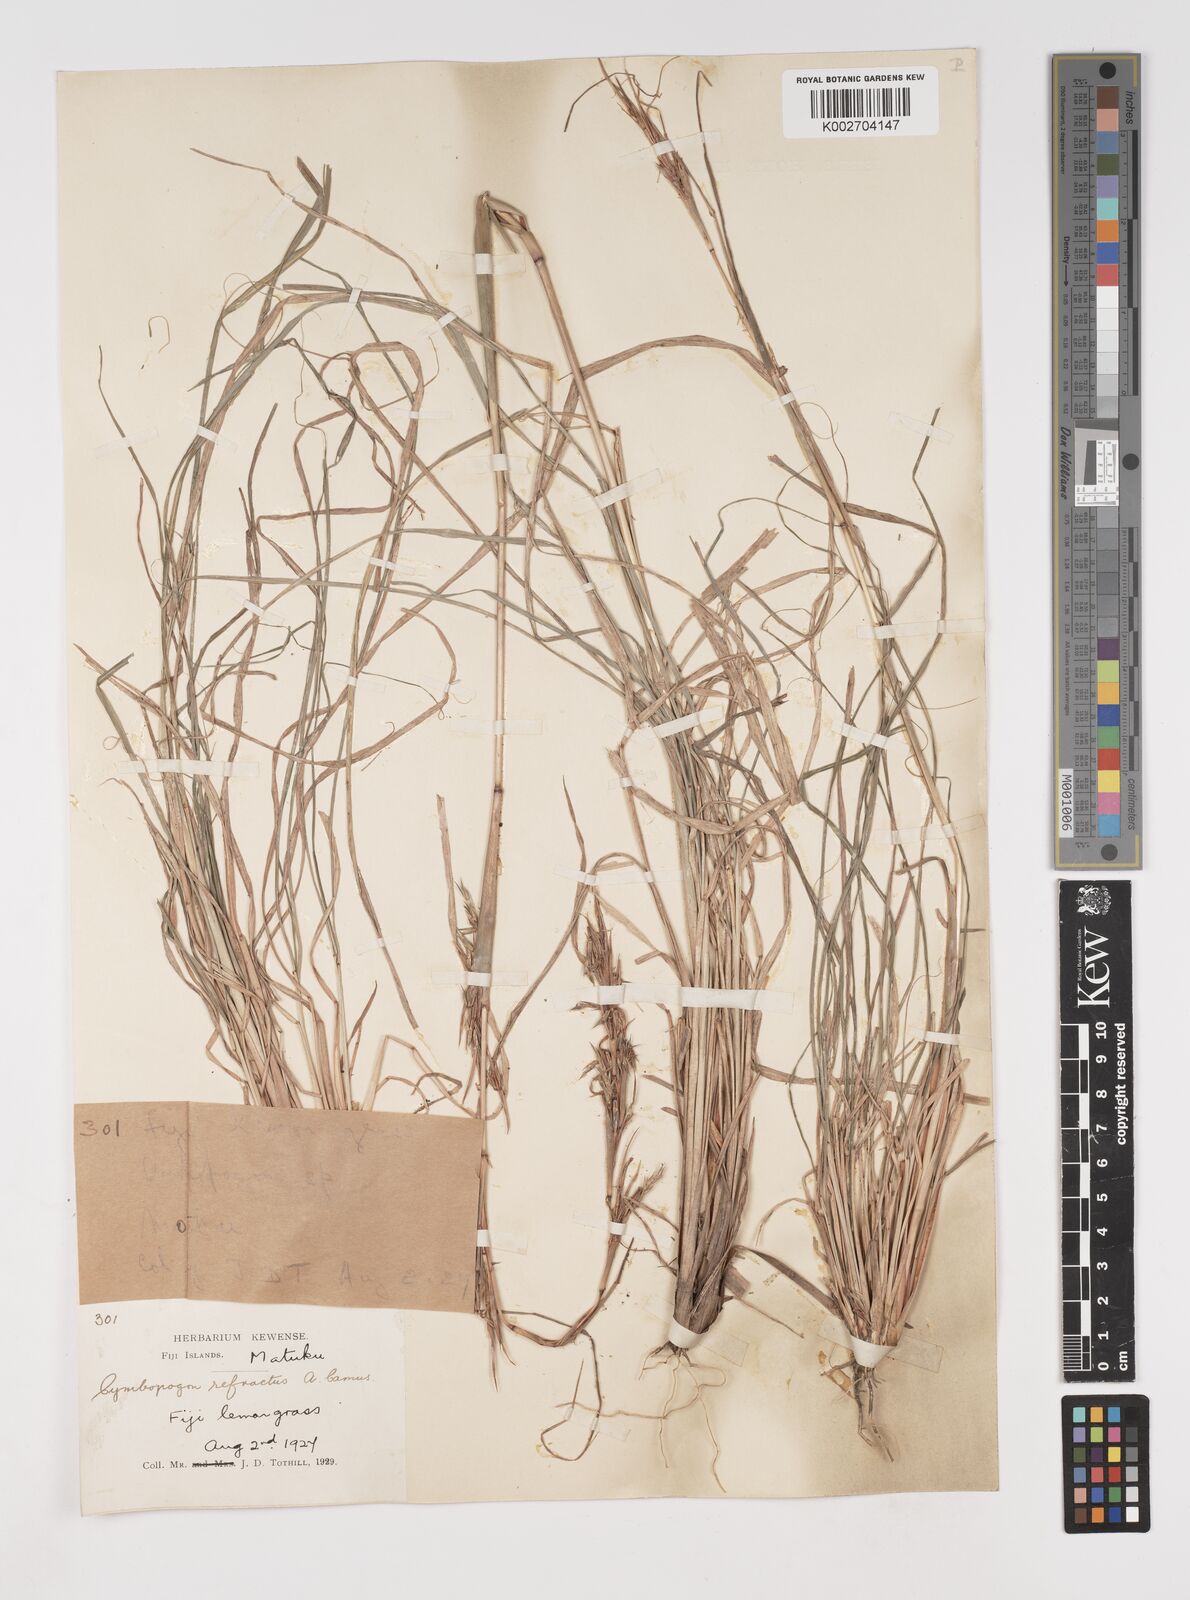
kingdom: Plantae
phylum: Tracheophyta
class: Liliopsida
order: Poales
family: Poaceae
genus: Cymbopogon
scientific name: Cymbopogon refractus
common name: Barbwire grass
